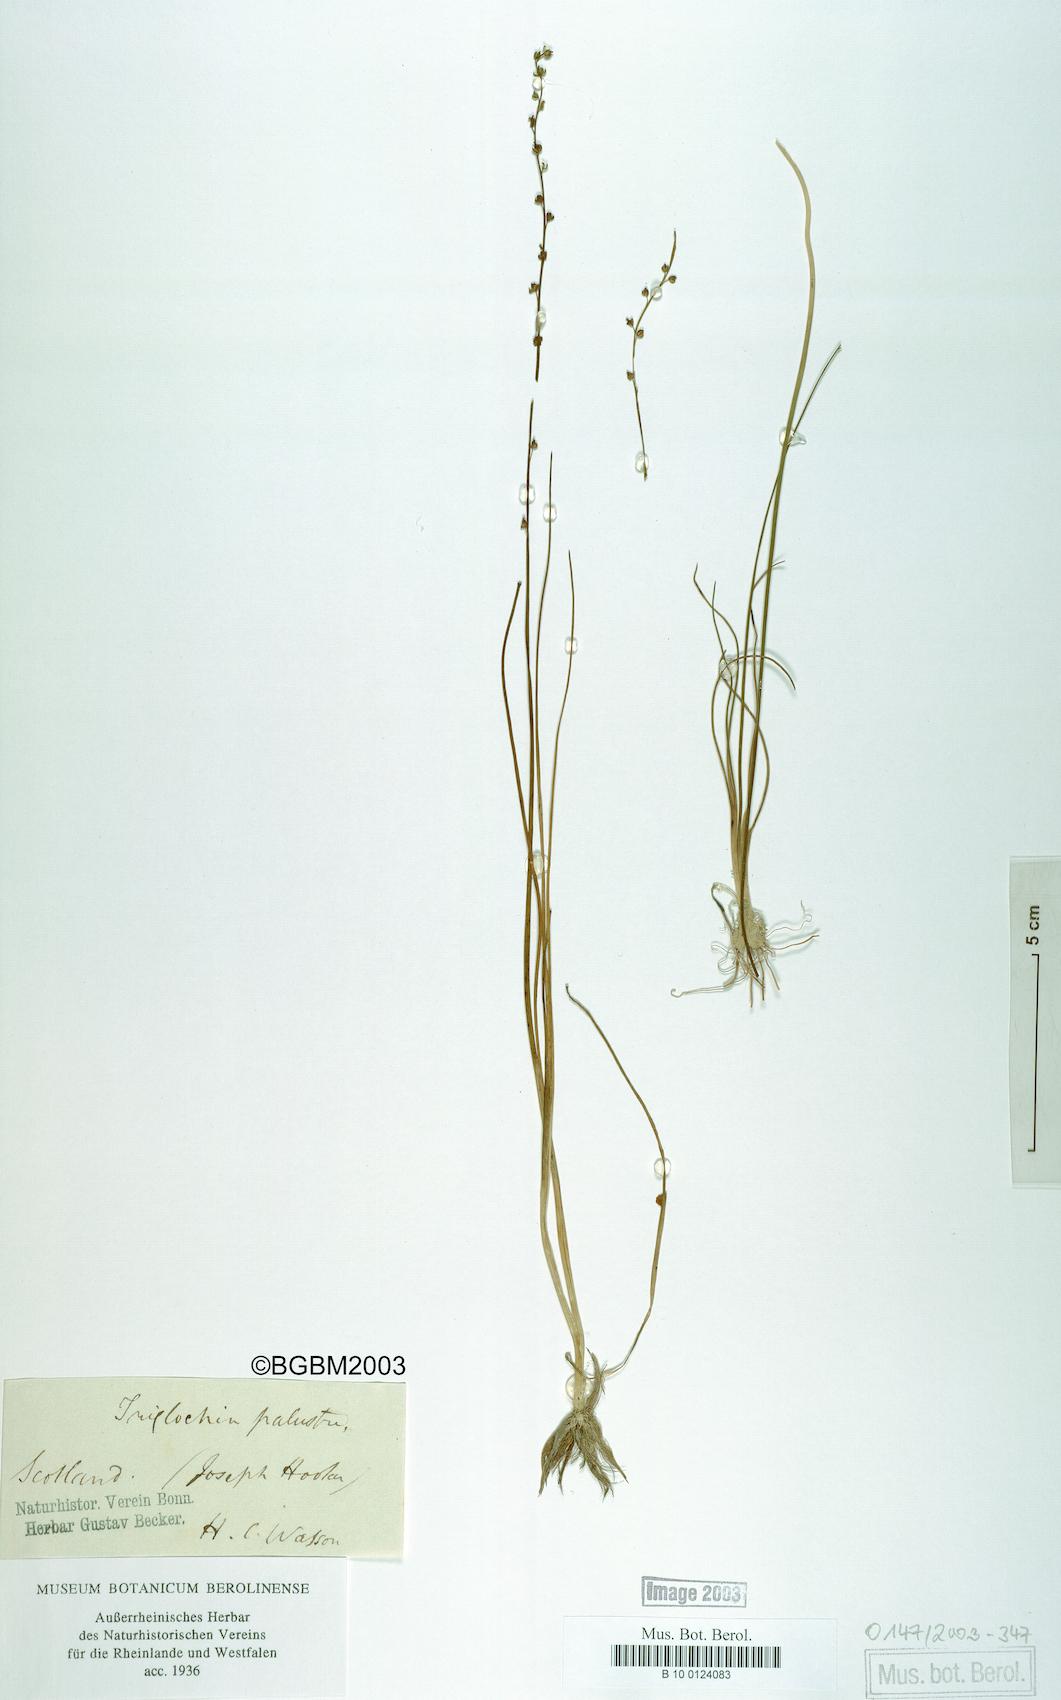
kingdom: Plantae
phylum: Tracheophyta
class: Liliopsida
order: Alismatales
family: Juncaginaceae
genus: Triglochin
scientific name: Triglochin palustris
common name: Marsh arrowgrass
